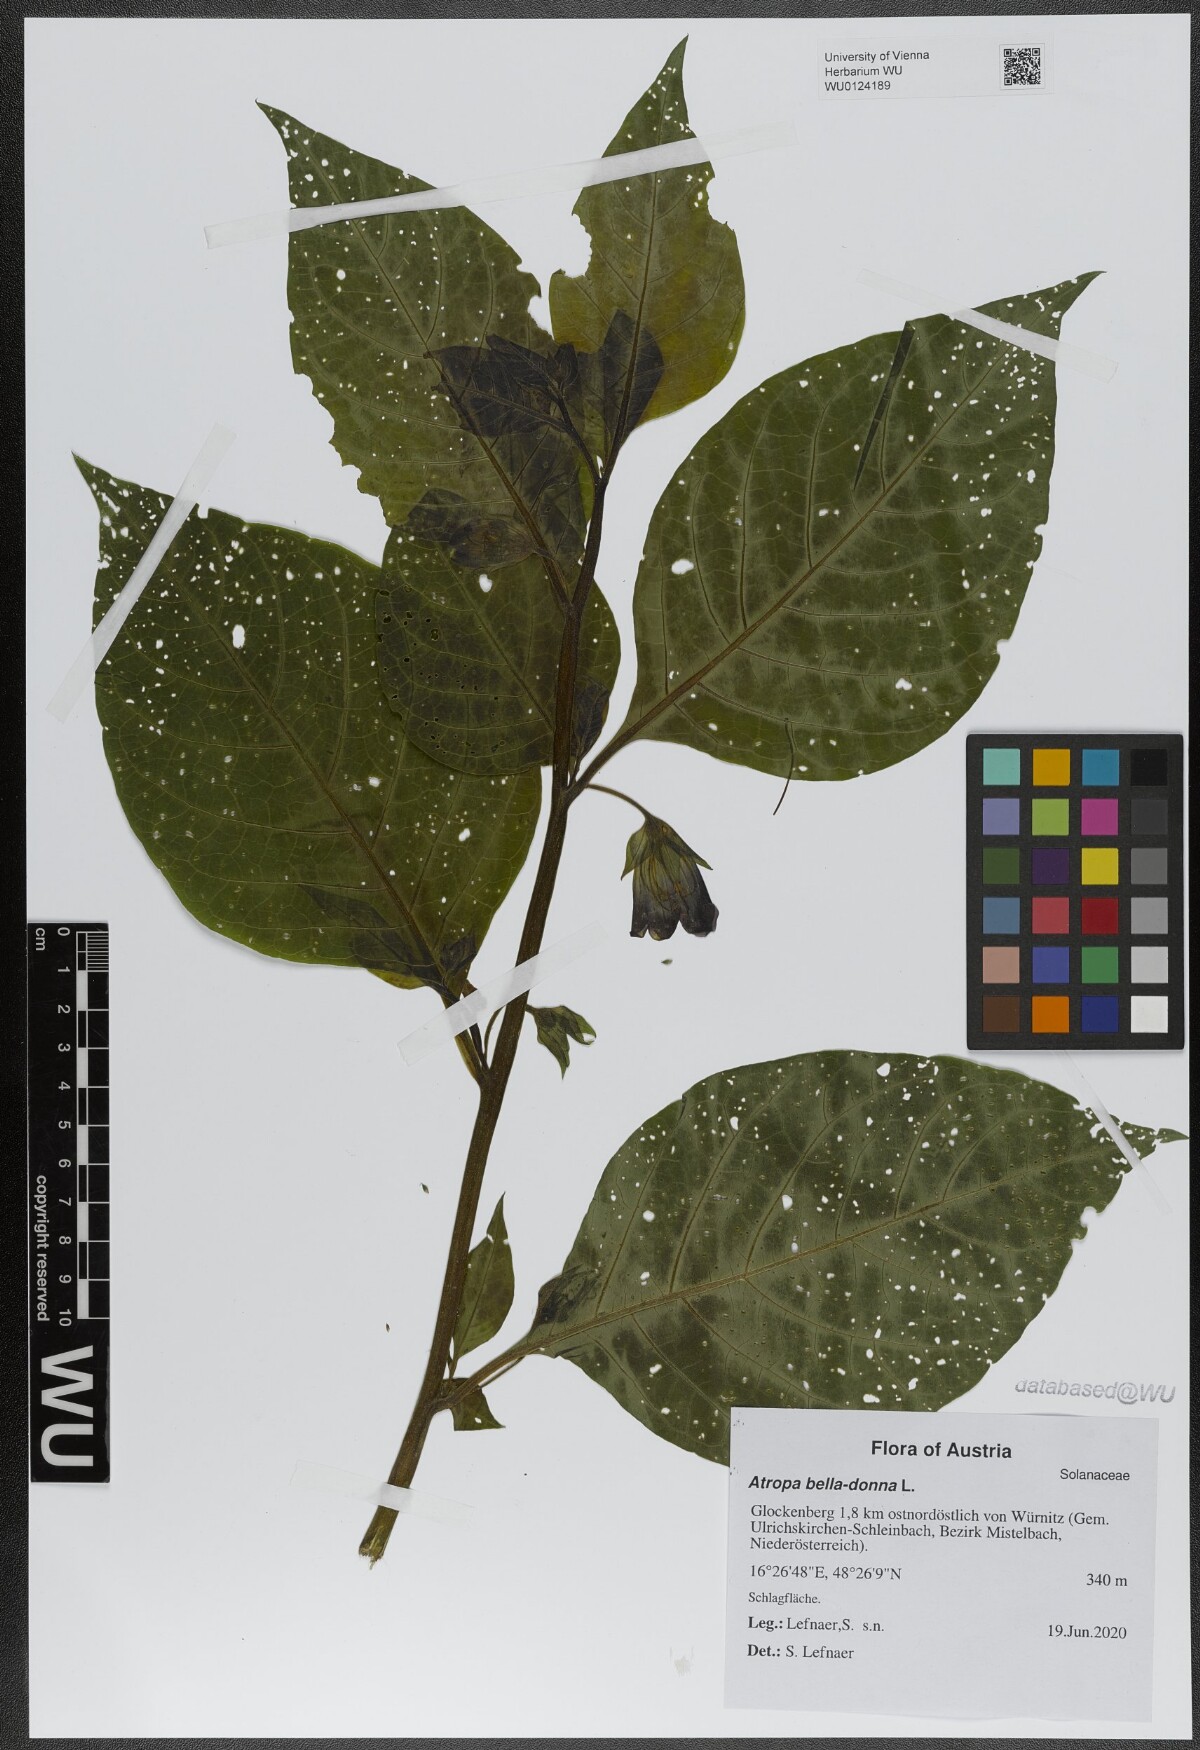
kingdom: Plantae
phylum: Tracheophyta
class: Magnoliopsida
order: Solanales
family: Solanaceae
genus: Atropa
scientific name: Atropa belladonna
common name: Deadly nightshade
